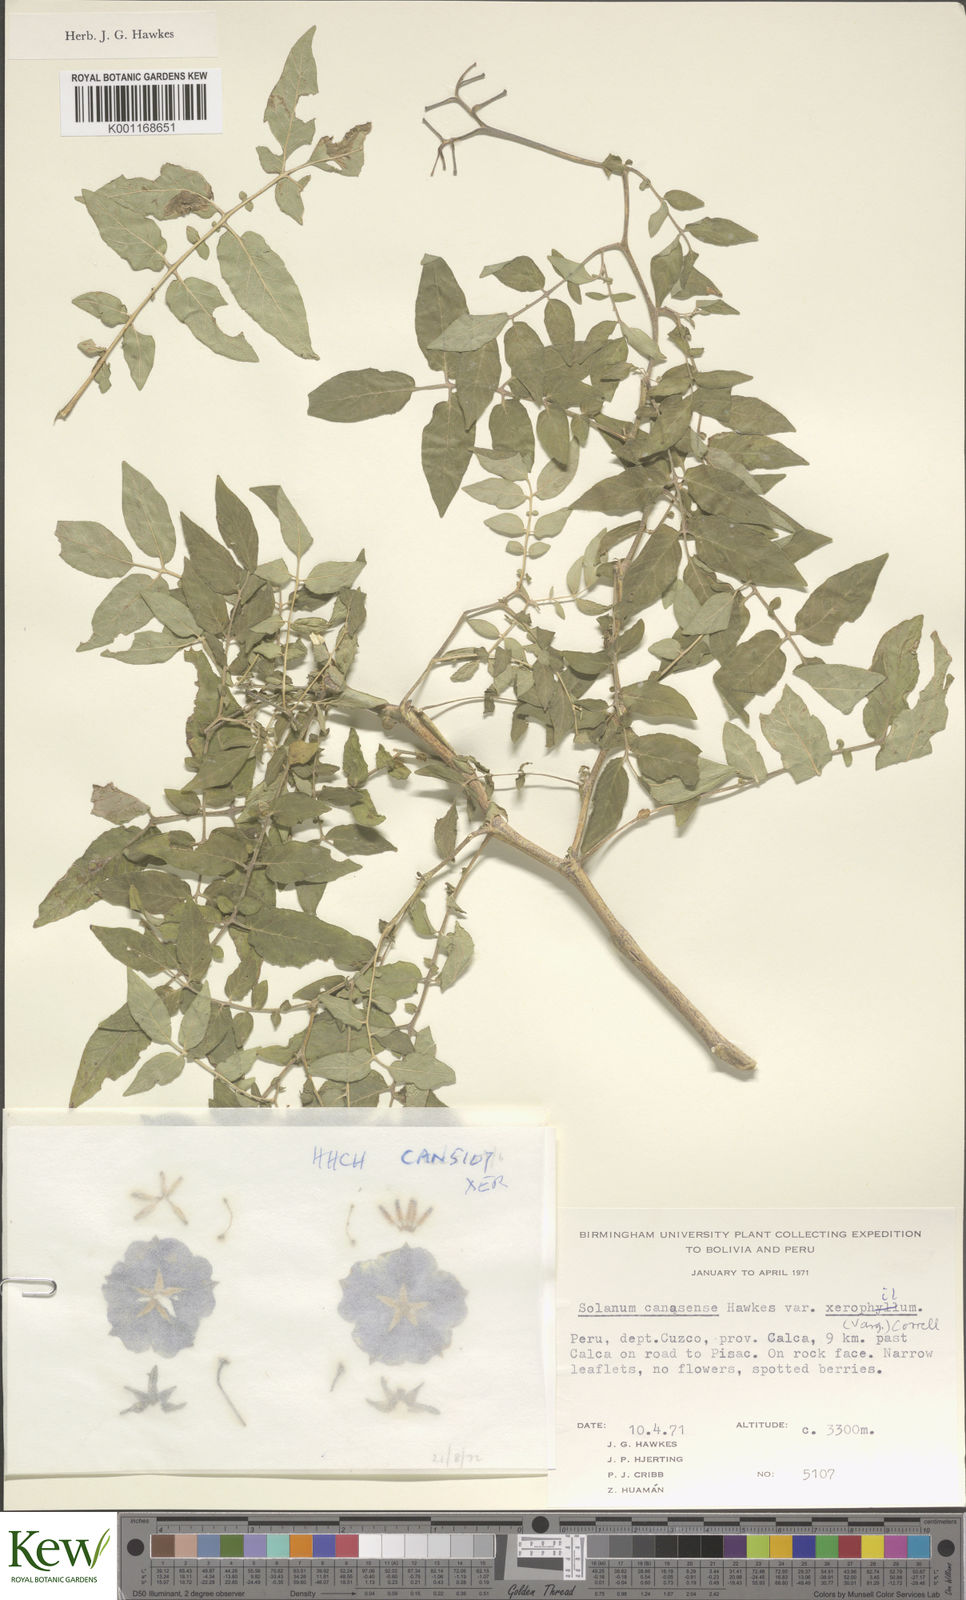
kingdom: Plantae
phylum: Tracheophyta
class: Magnoliopsida
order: Solanales
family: Solanaceae
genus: Solanum
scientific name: Solanum candolleanum
